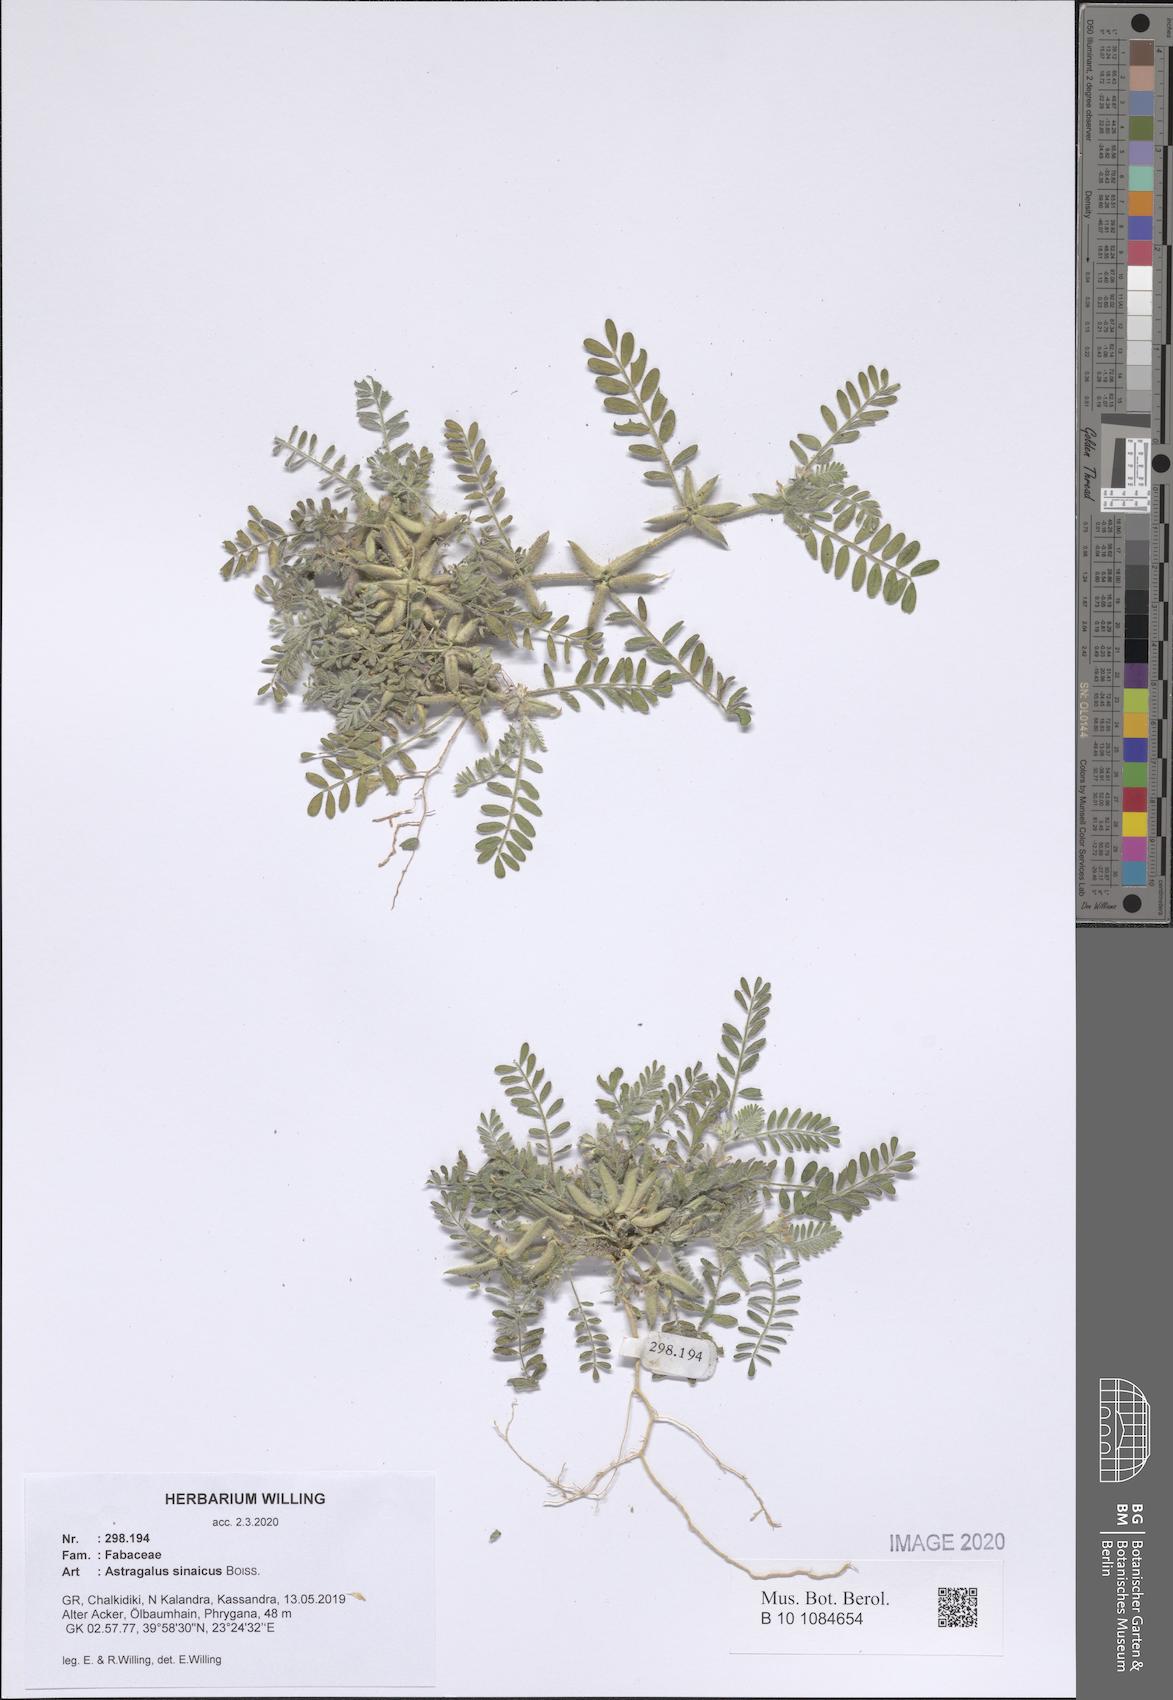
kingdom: Plantae
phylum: Tracheophyta
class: Magnoliopsida
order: Fabales
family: Fabaceae
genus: Astragalus
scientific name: Astragalus sinaicus
